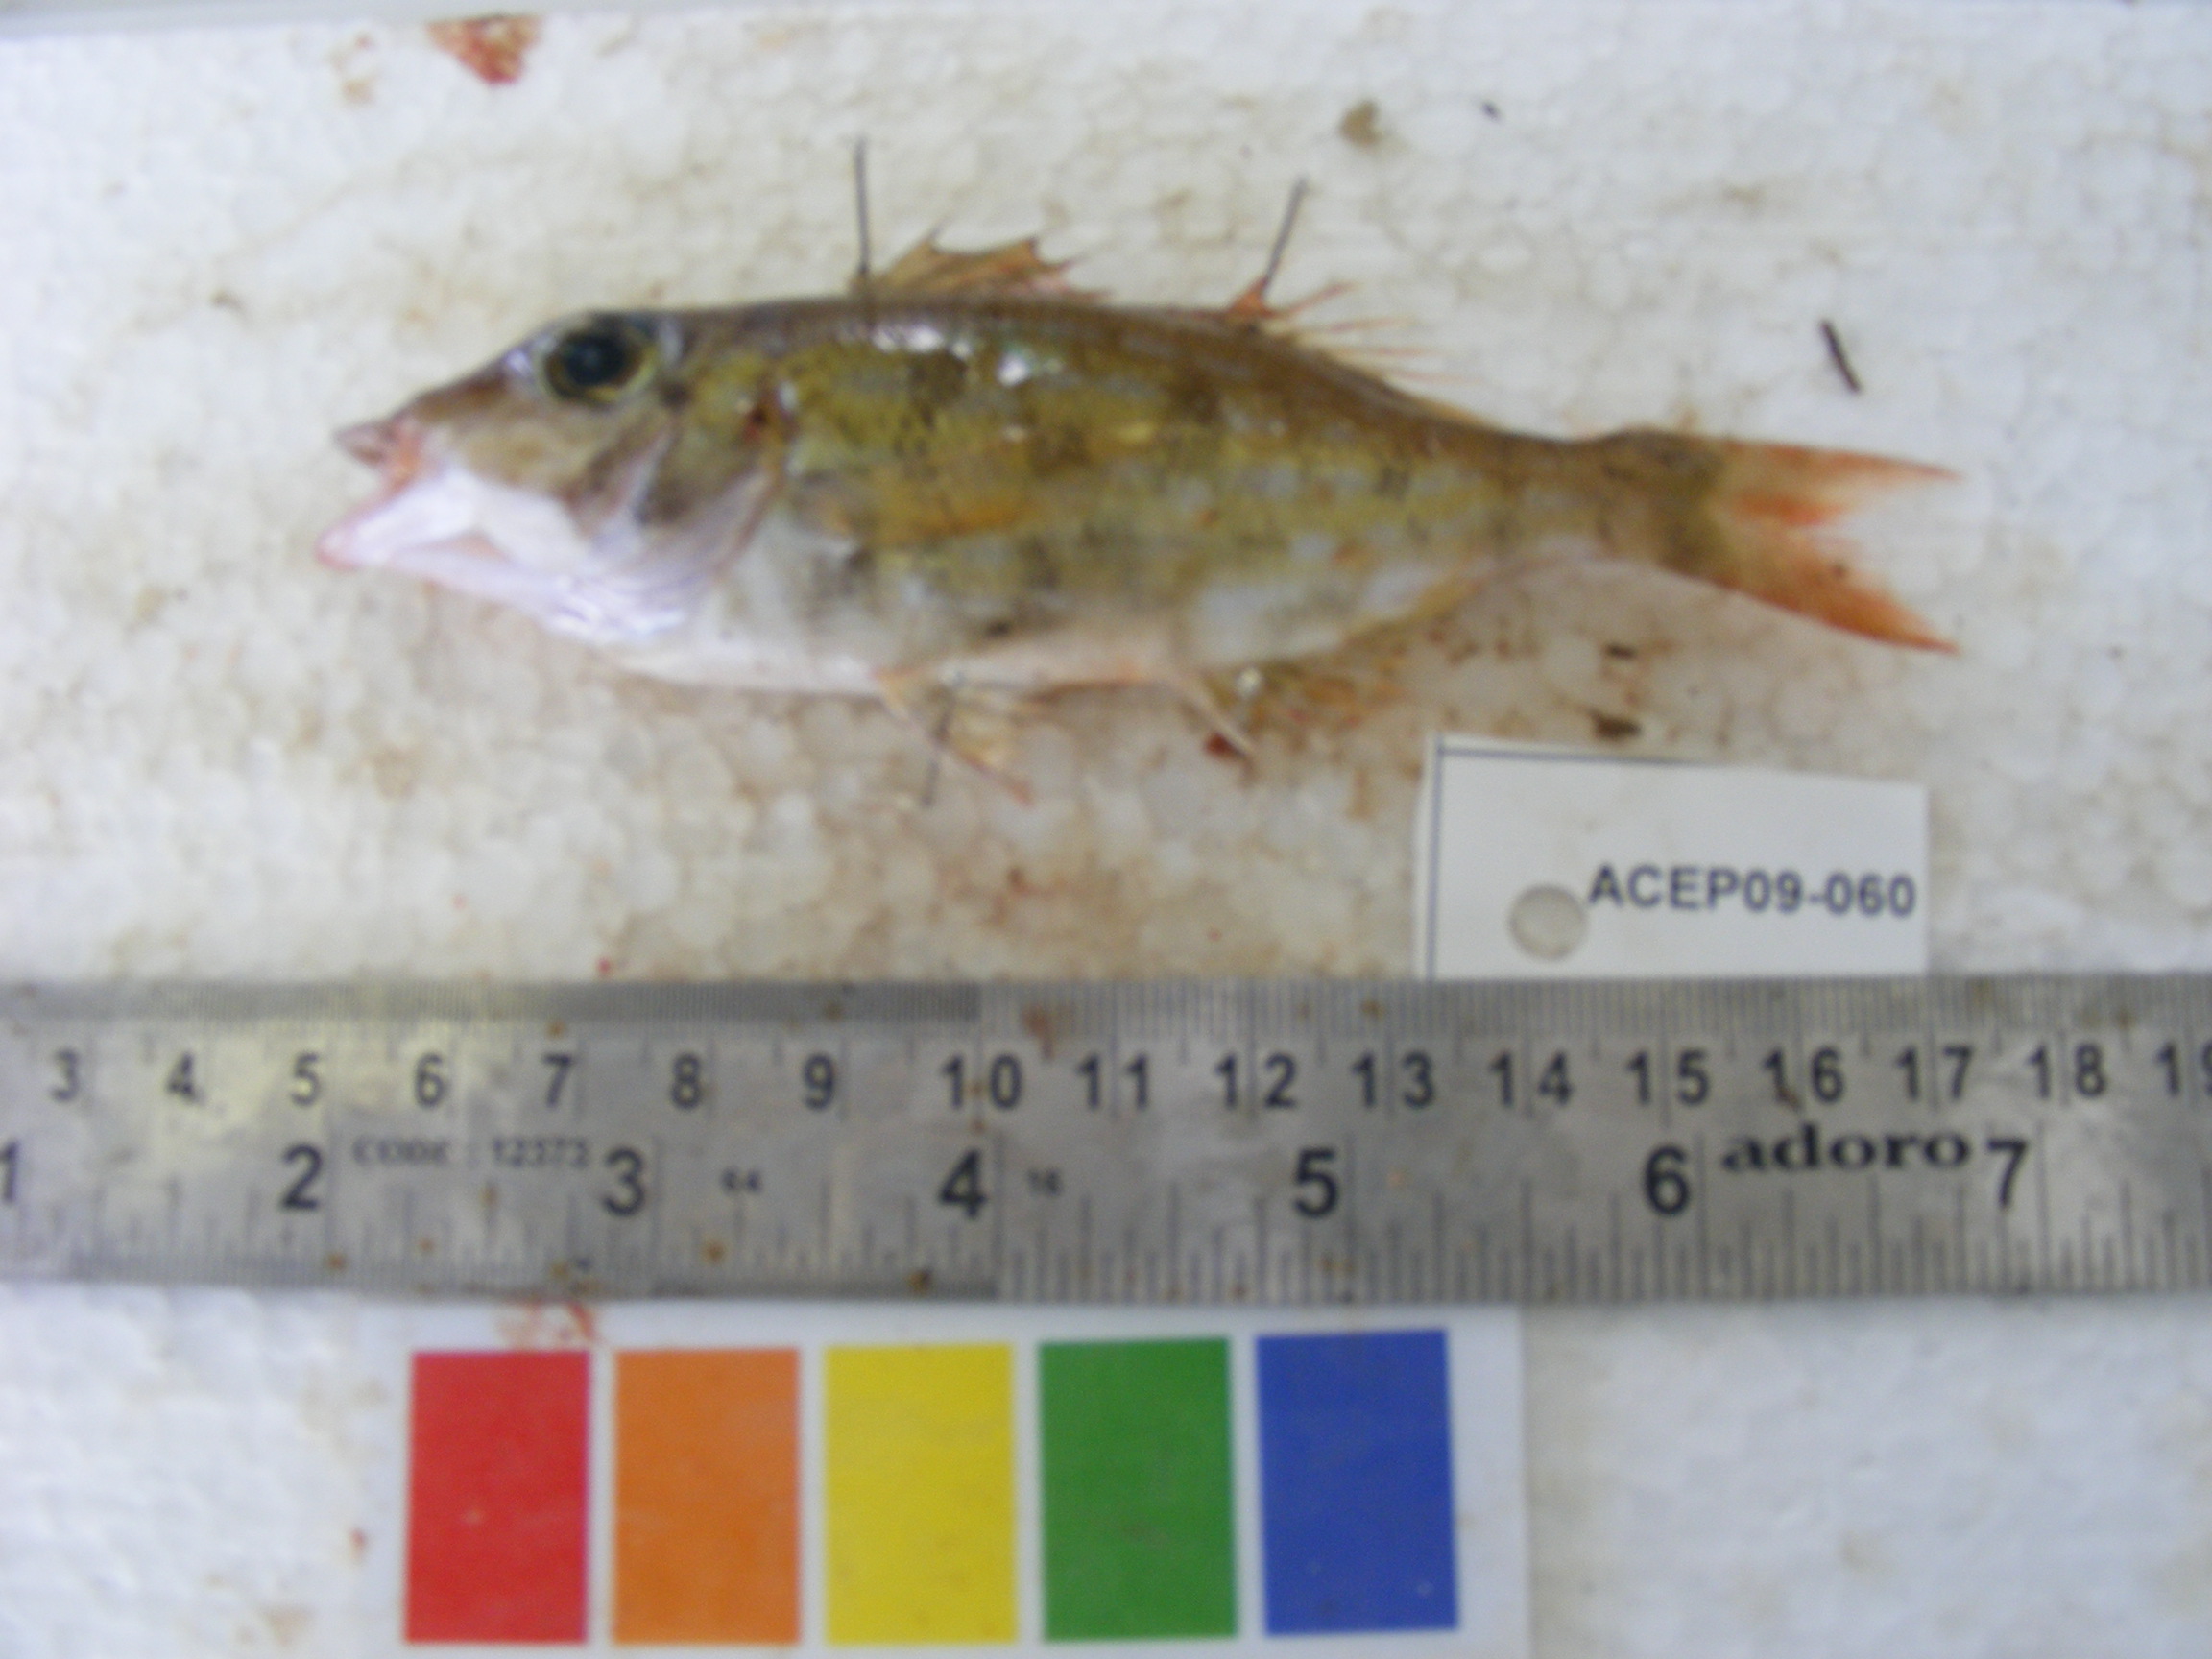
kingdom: Animalia
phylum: Chordata
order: Perciformes
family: Lethrinidae
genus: Lethrinus
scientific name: Lethrinus rubrioperculatus
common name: Spotcheek emperor
